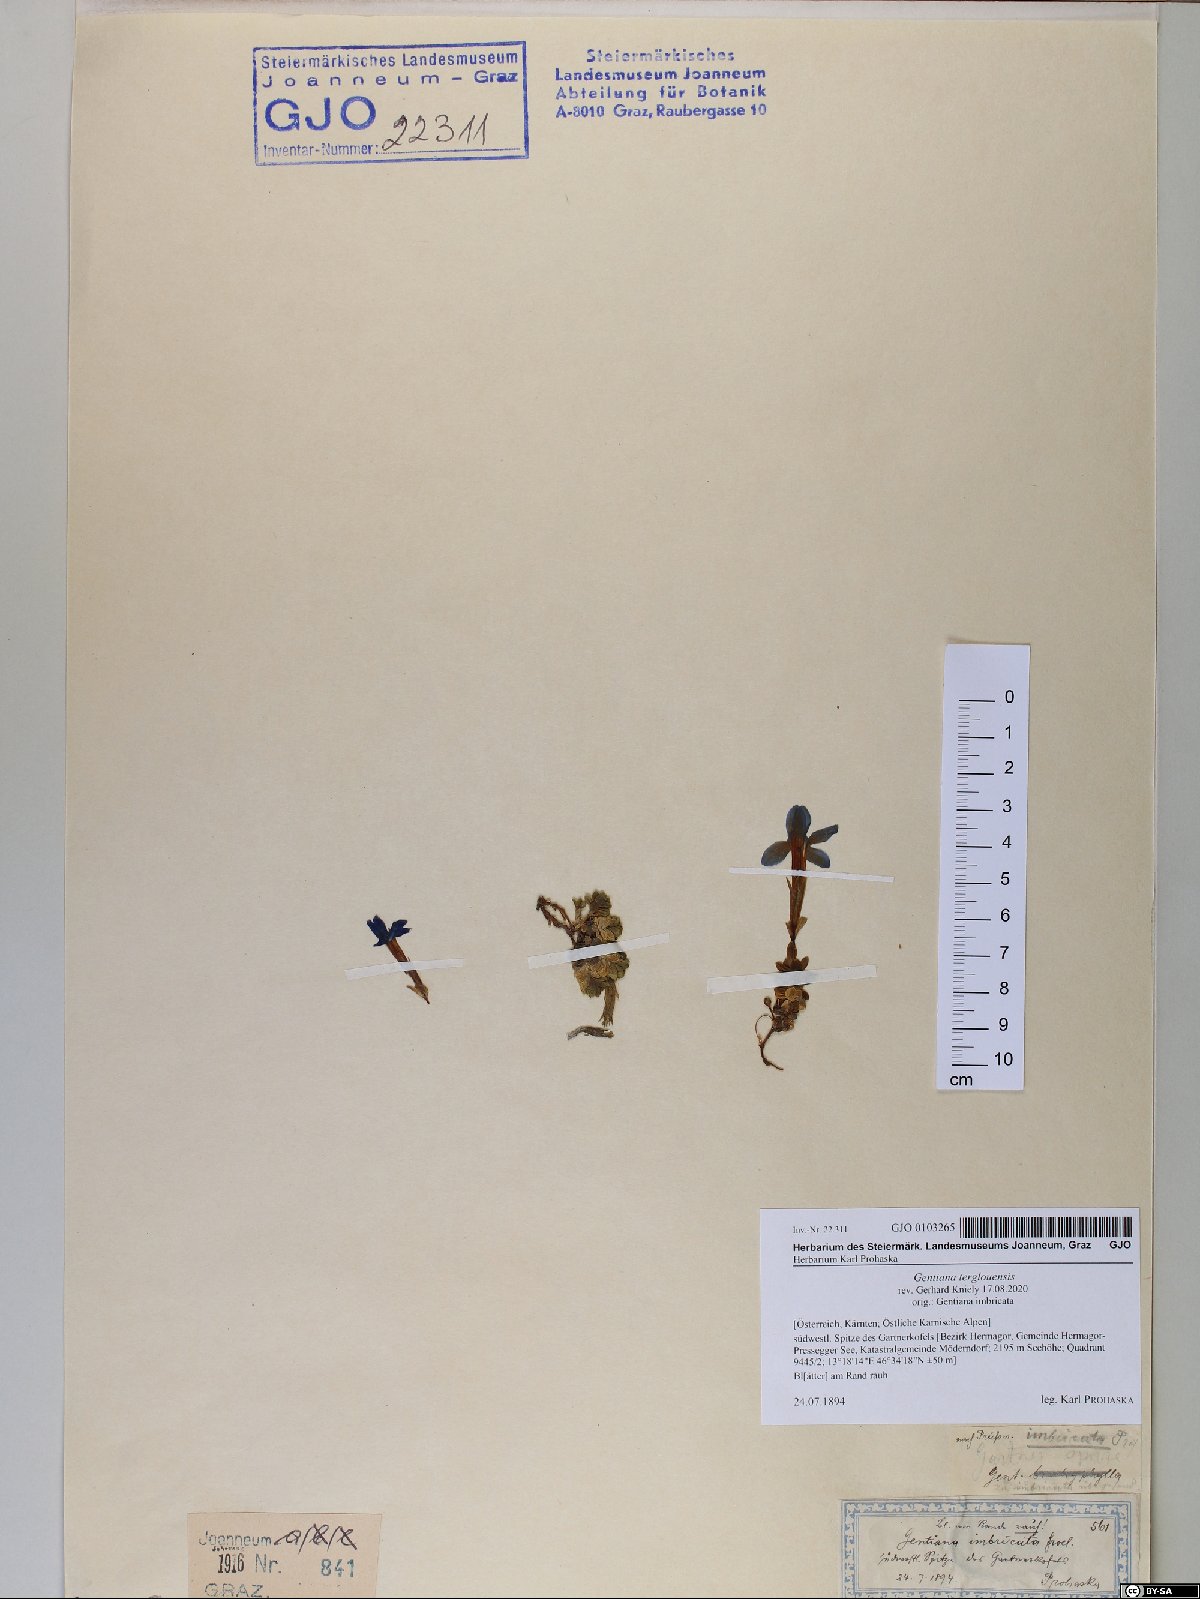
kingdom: Plantae
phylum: Tracheophyta
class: Magnoliopsida
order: Gentianales
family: Gentianaceae
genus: Gentiana
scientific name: Gentiana terglouensis
